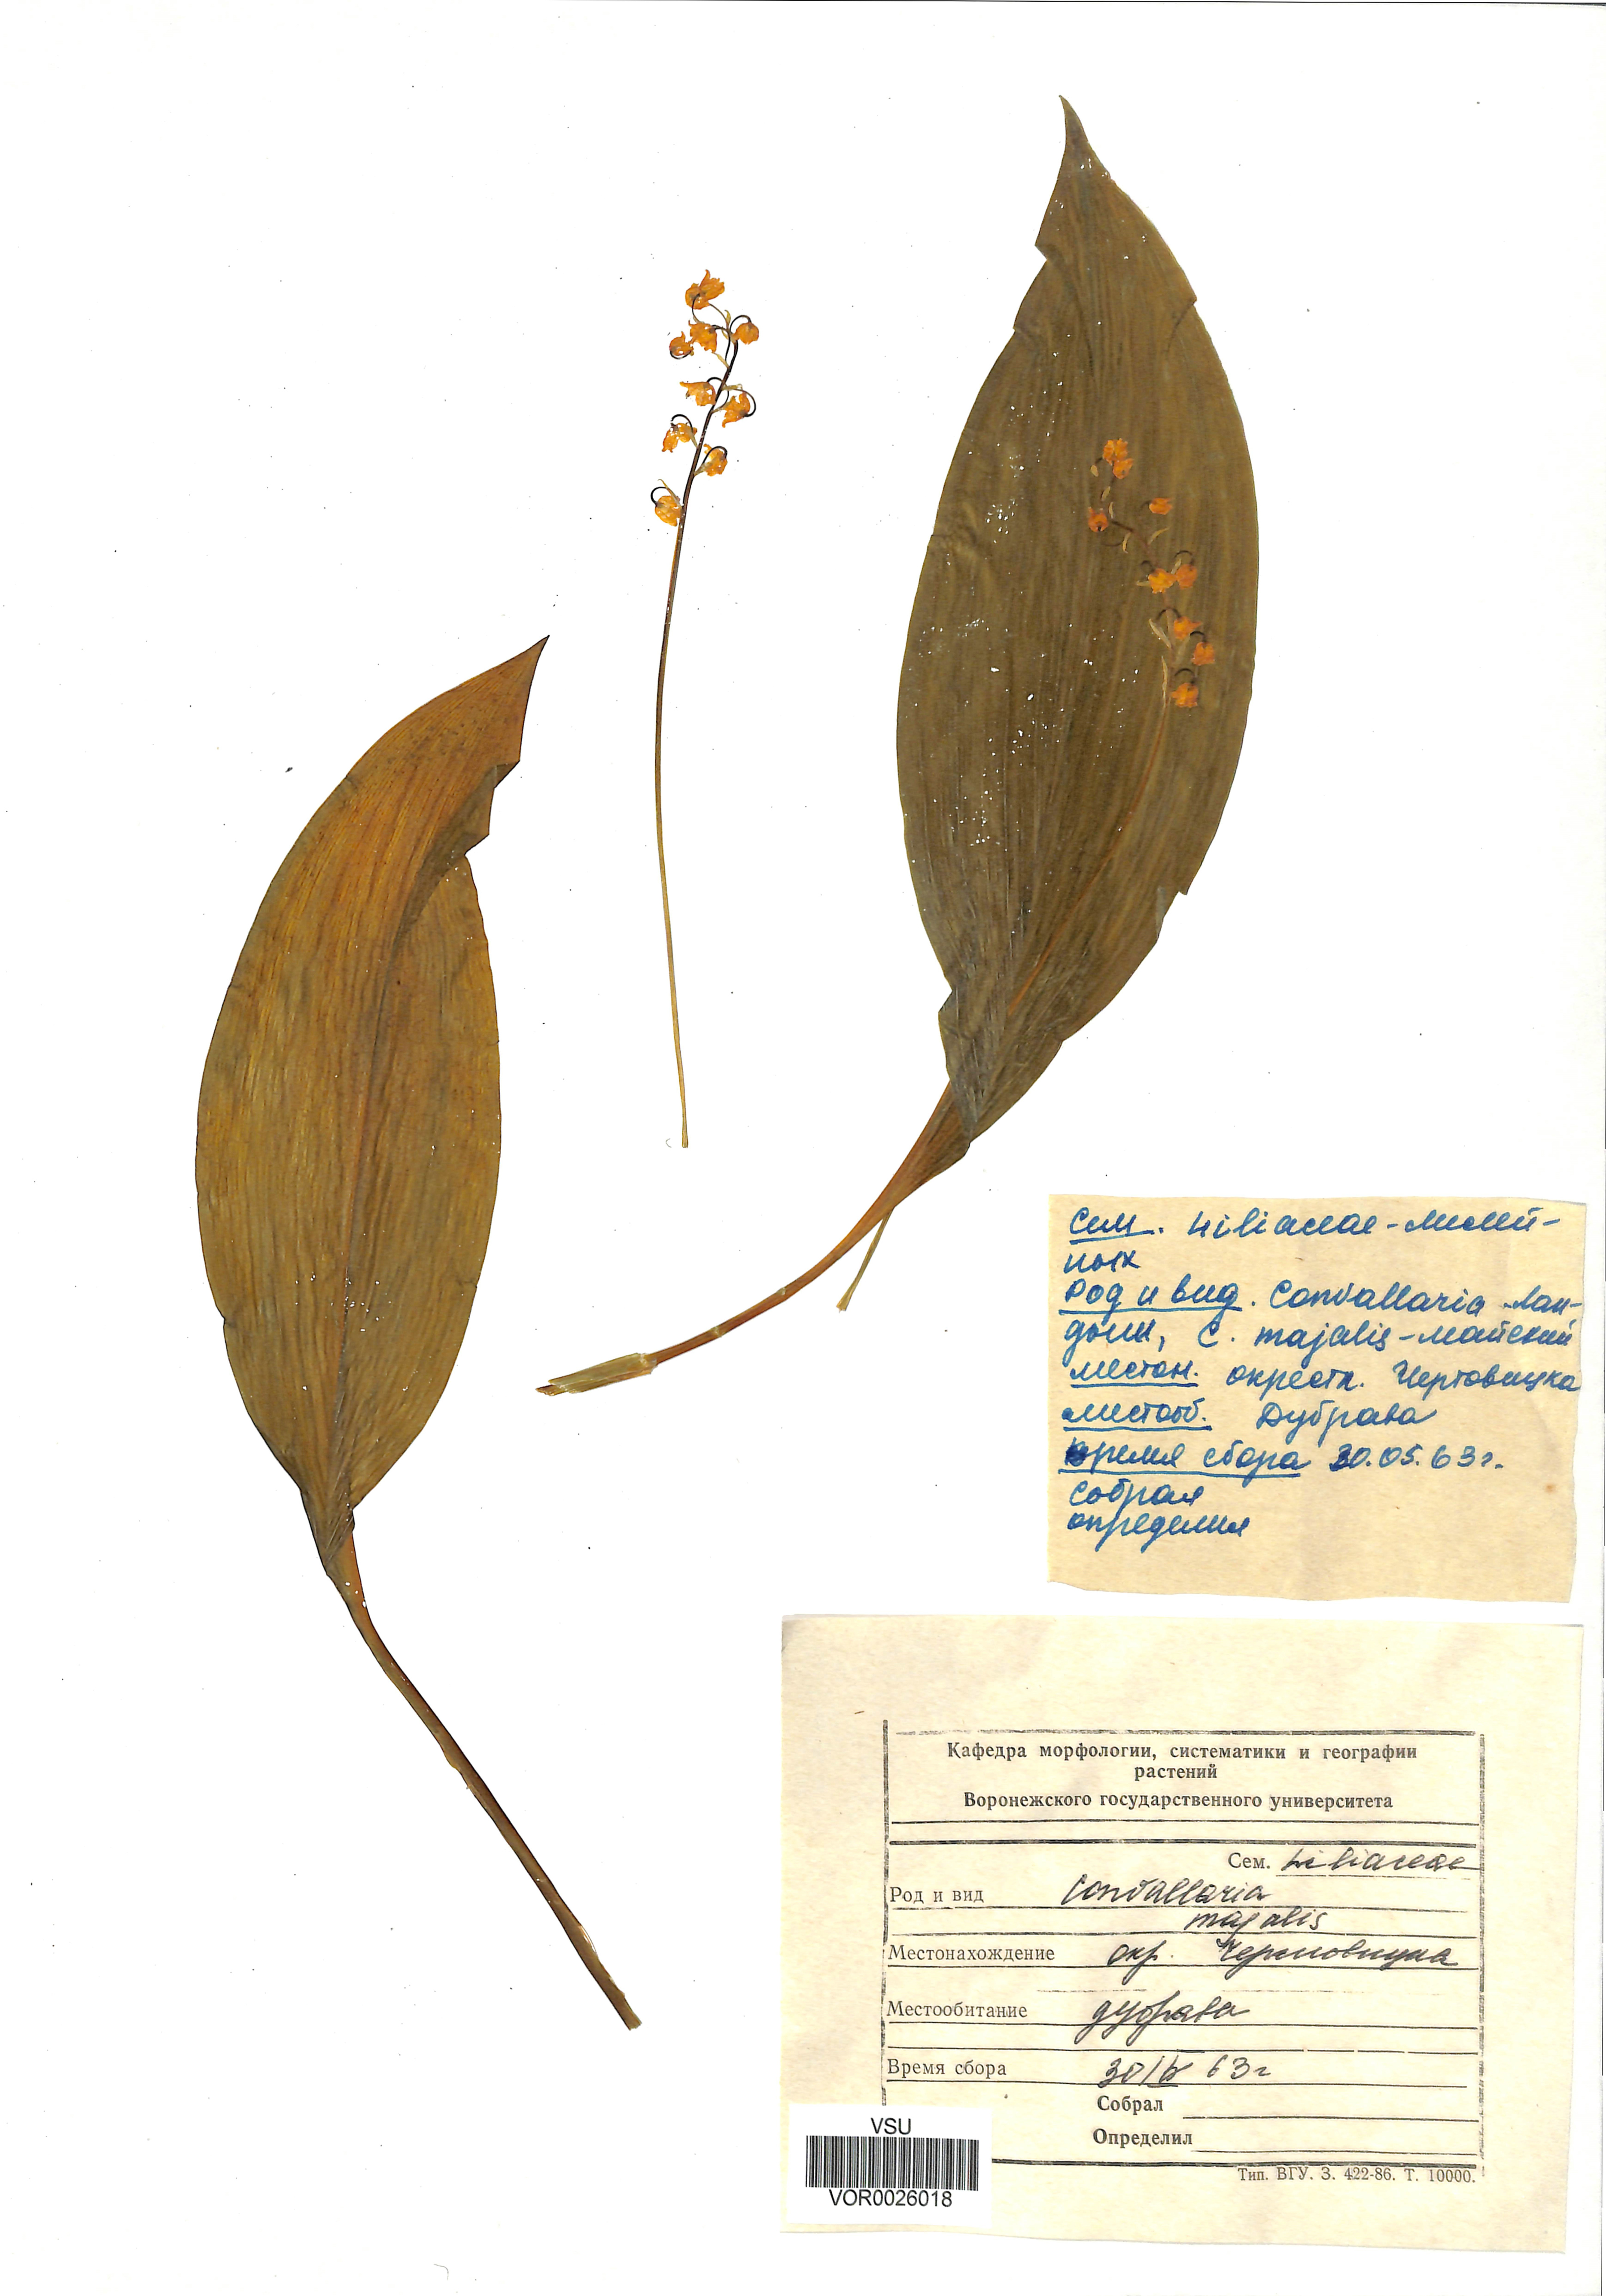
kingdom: Plantae
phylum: Tracheophyta
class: Liliopsida
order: Asparagales
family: Asparagaceae
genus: Convallaria
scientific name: Convallaria majalis
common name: Lily-of-the-valley
